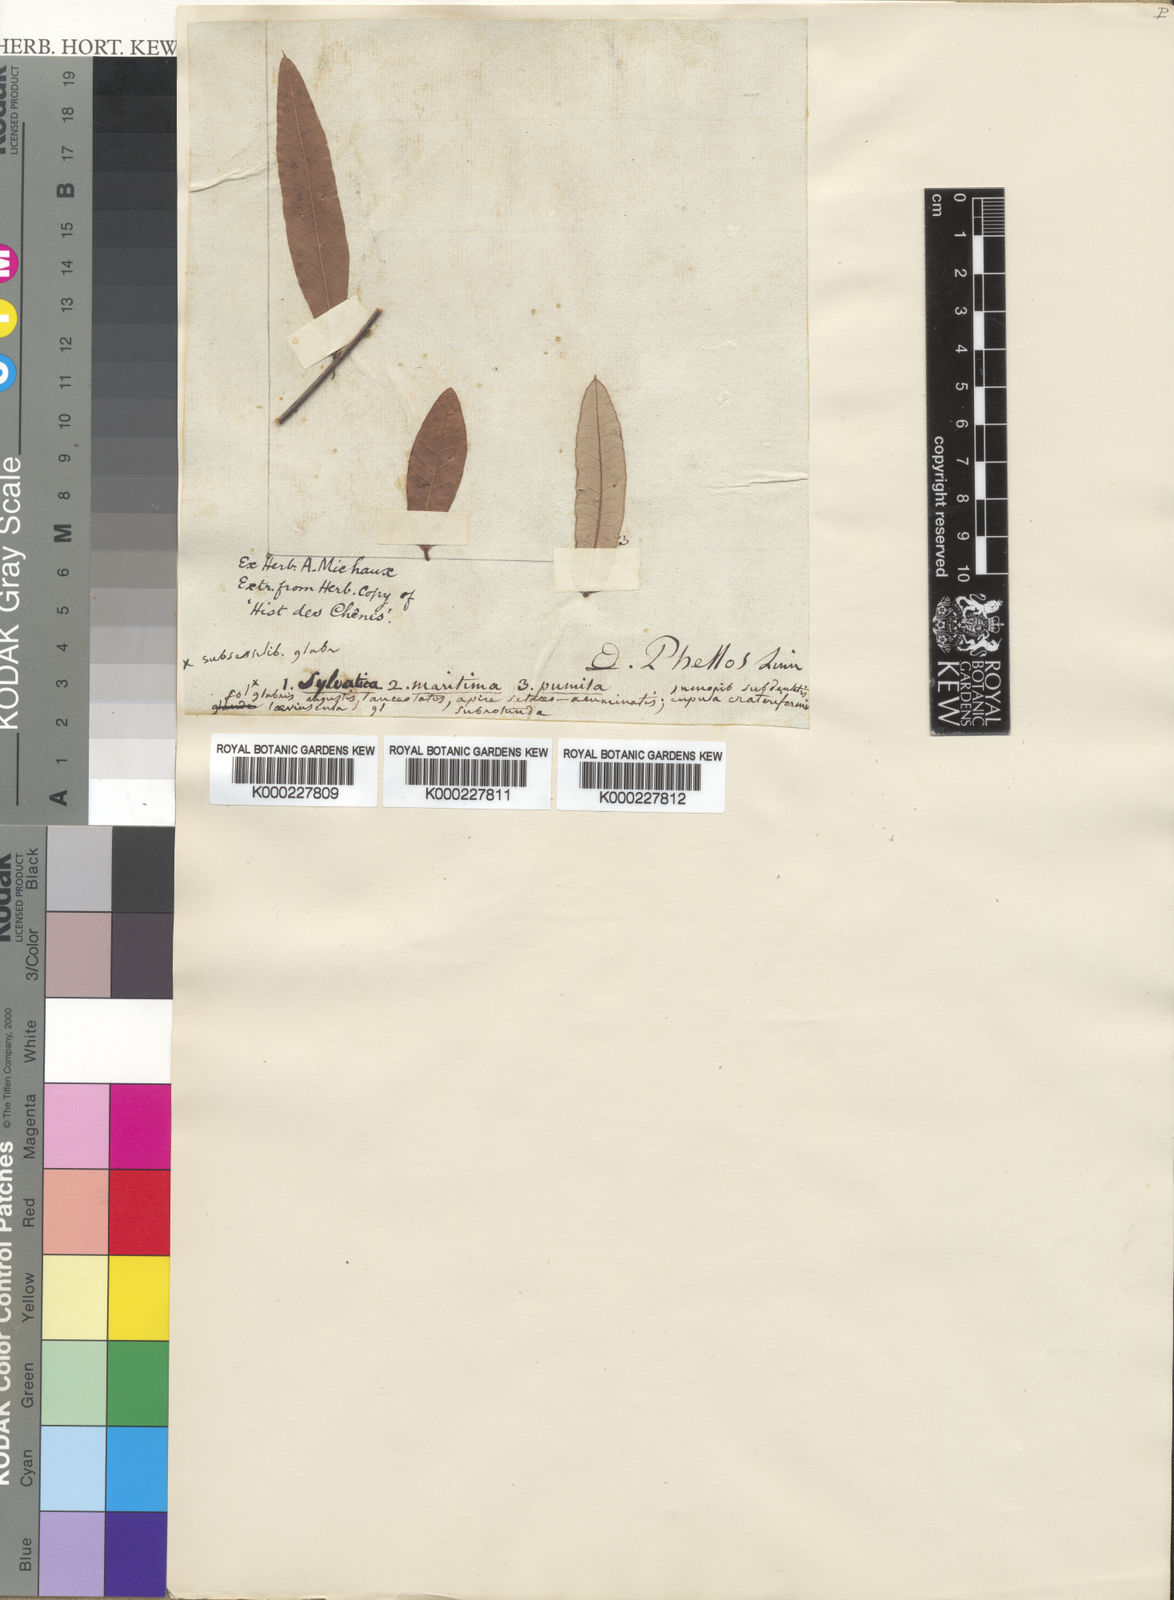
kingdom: Plantae
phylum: Tracheophyta
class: Magnoliopsida
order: Fagales
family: Fagaceae
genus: Quercus
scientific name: Quercus pumila
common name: Runner oak
